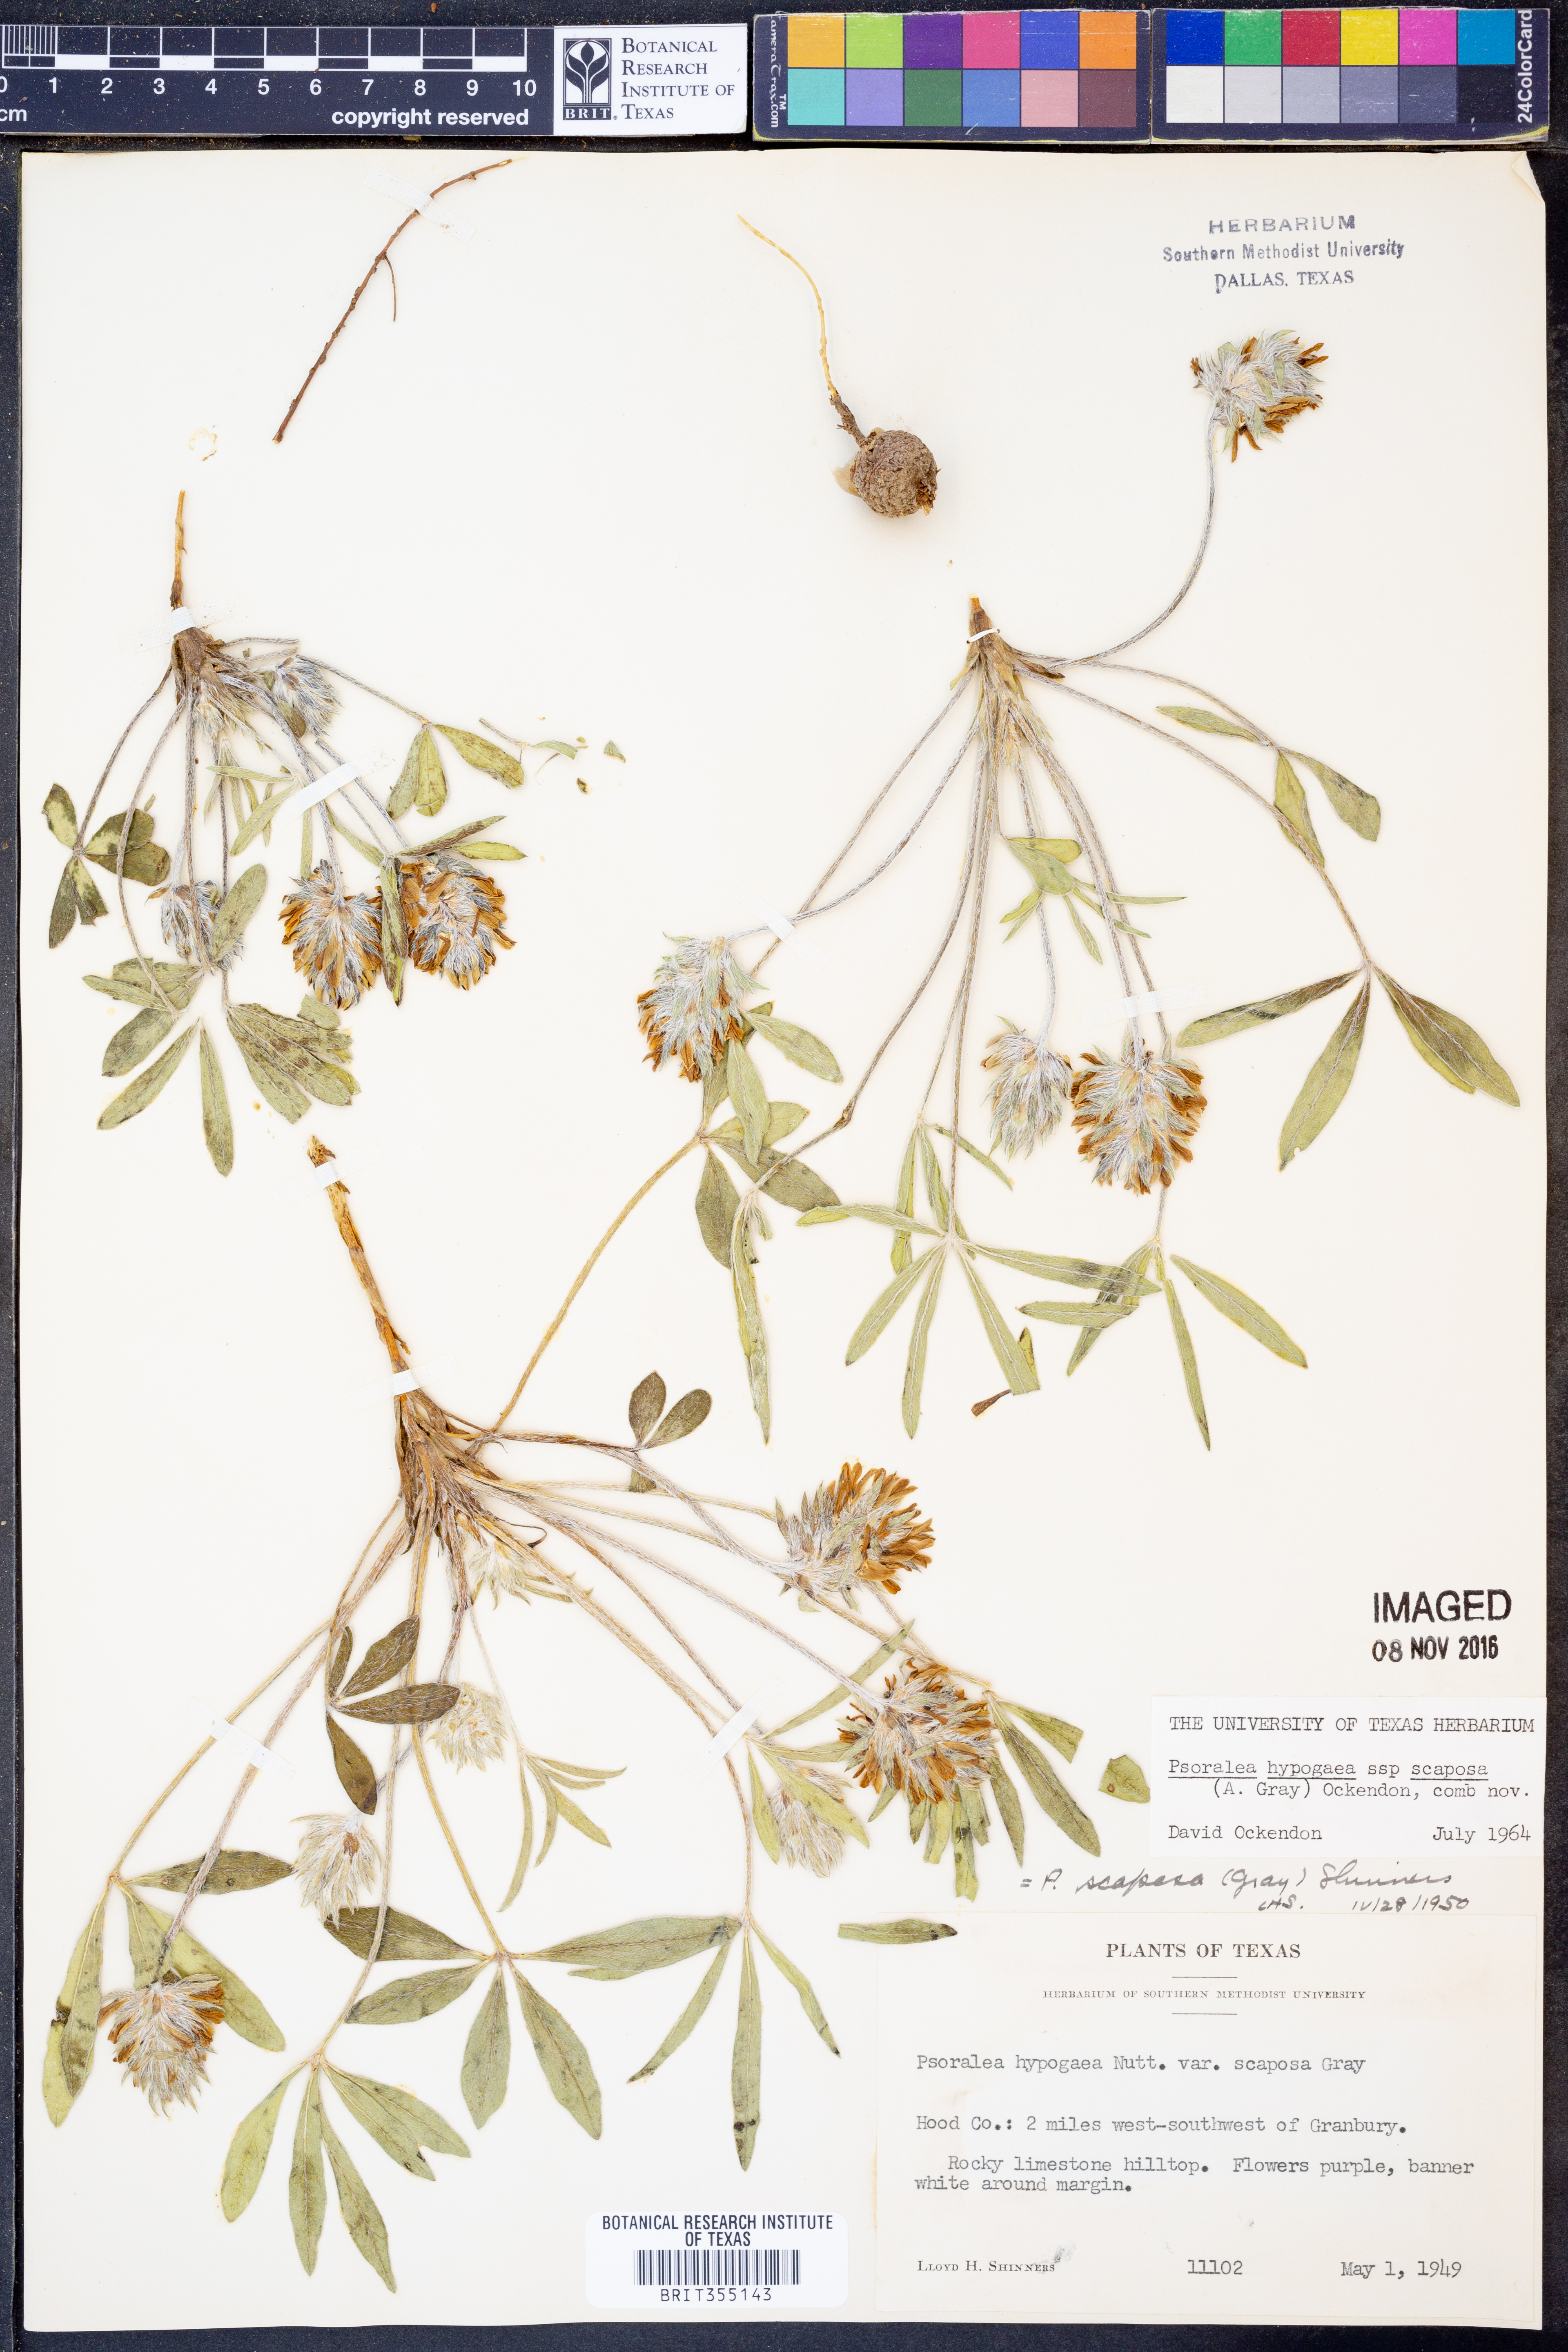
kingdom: Plantae
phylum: Tracheophyta
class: Magnoliopsida
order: Fabales
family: Fabaceae
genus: Pediomelum
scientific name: Pediomelum hypogaeum
